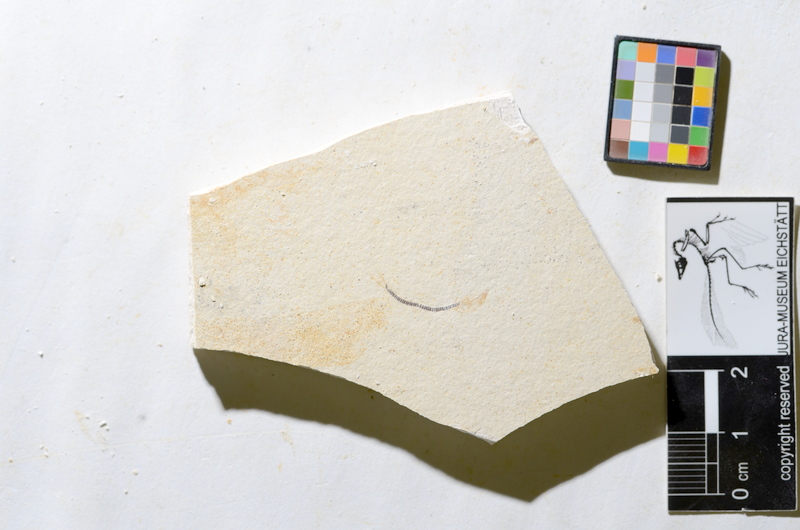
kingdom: Animalia
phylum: Chordata
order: Salmoniformes
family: Orthogonikleithridae
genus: Orthogonikleithrus
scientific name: Orthogonikleithrus hoelli
